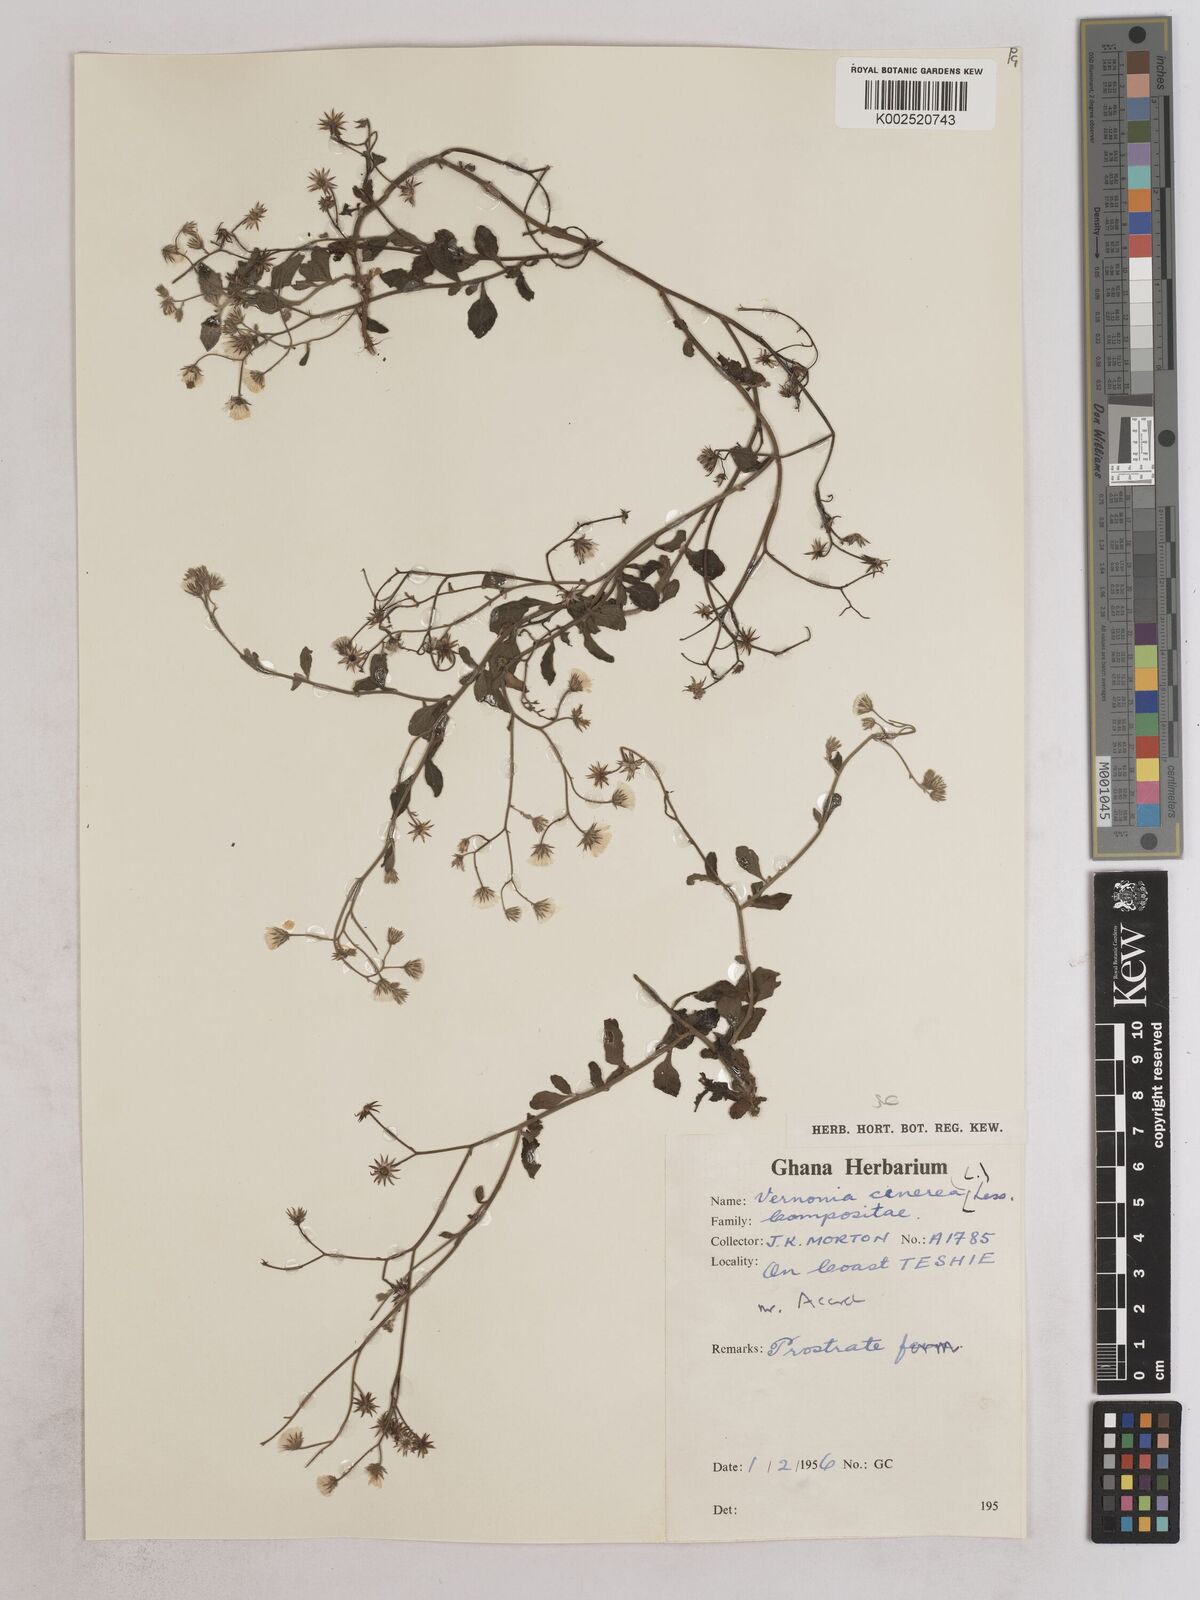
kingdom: Plantae
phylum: Tracheophyta
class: Magnoliopsida
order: Asterales
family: Asteraceae
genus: Cyanthillium
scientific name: Cyanthillium cinereum
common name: Little ironweed
